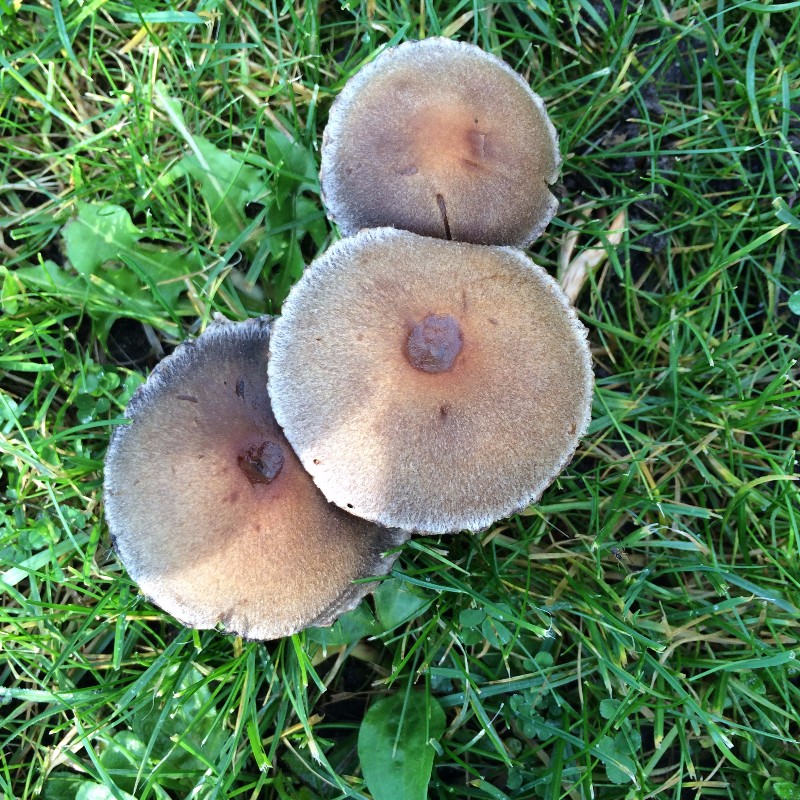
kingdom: Fungi
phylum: Basidiomycota
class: Agaricomycetes
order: Agaricales
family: Psathyrellaceae
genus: Lacrymaria
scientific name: Lacrymaria lacrymabunda
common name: grædende mørkhat
